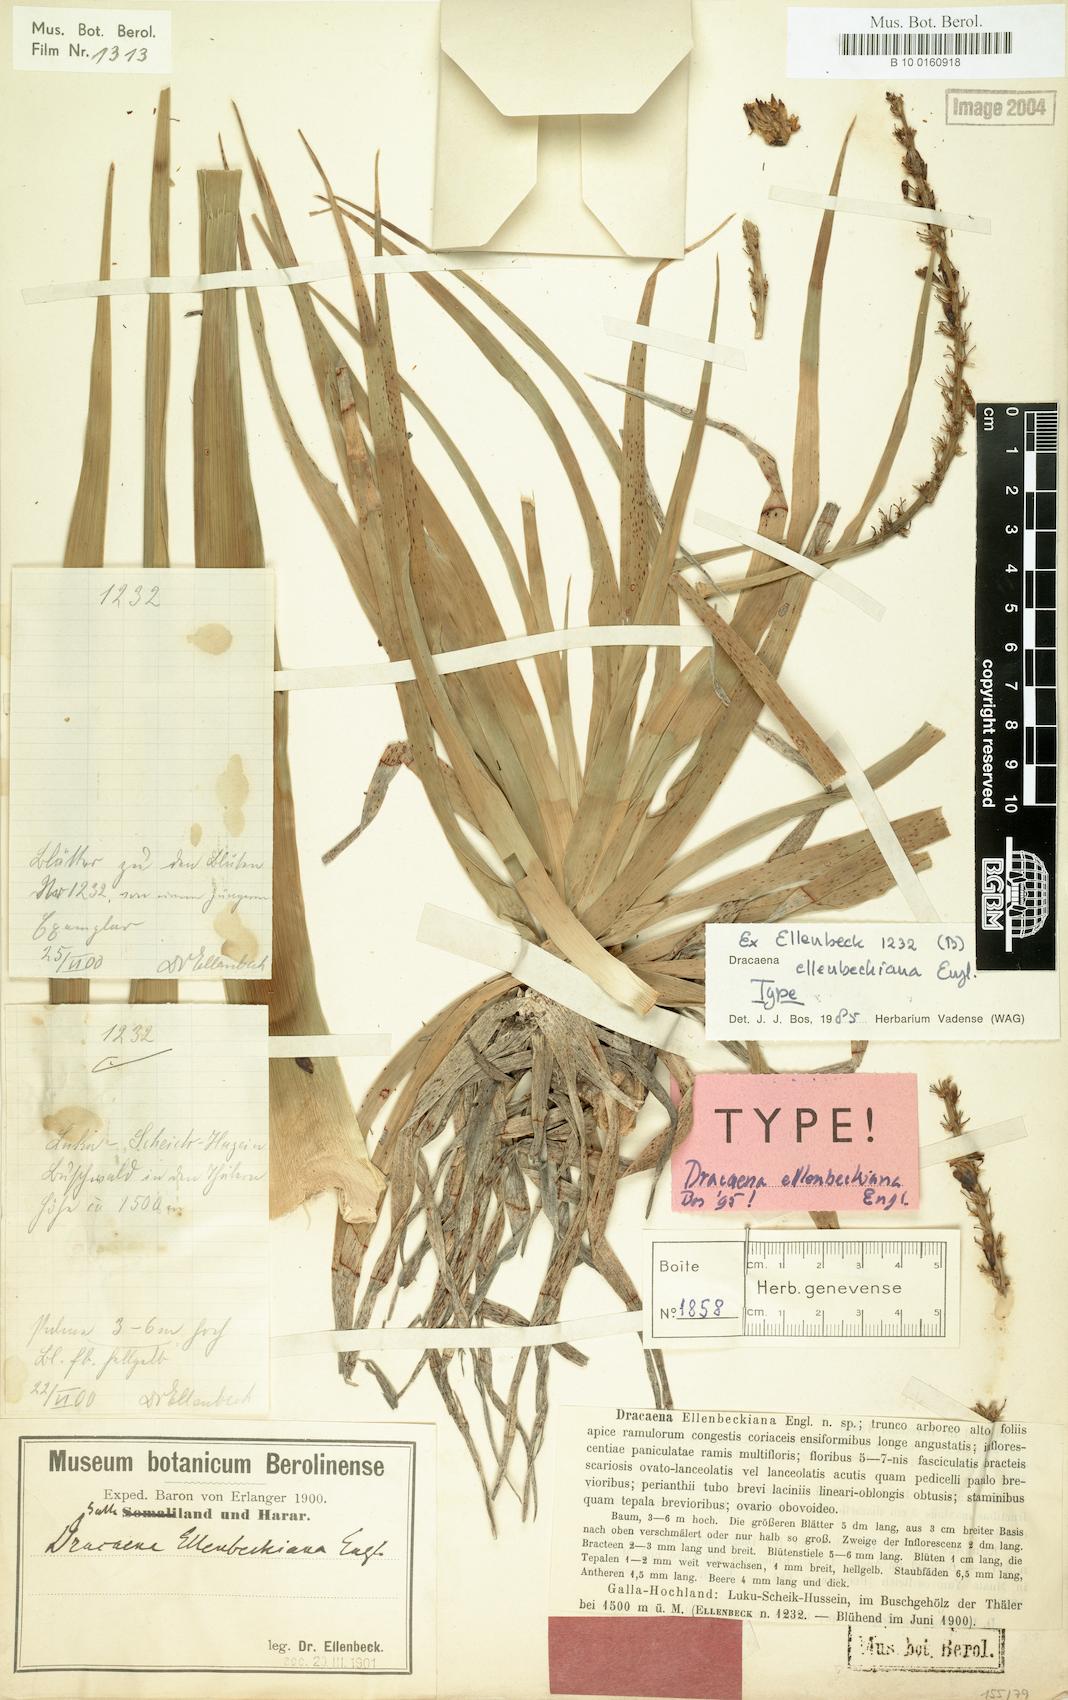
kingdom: Plantae
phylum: Tracheophyta
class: Liliopsida
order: Asparagales
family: Asparagaceae
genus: Dracaena
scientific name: Dracaena ellenbeckiana
